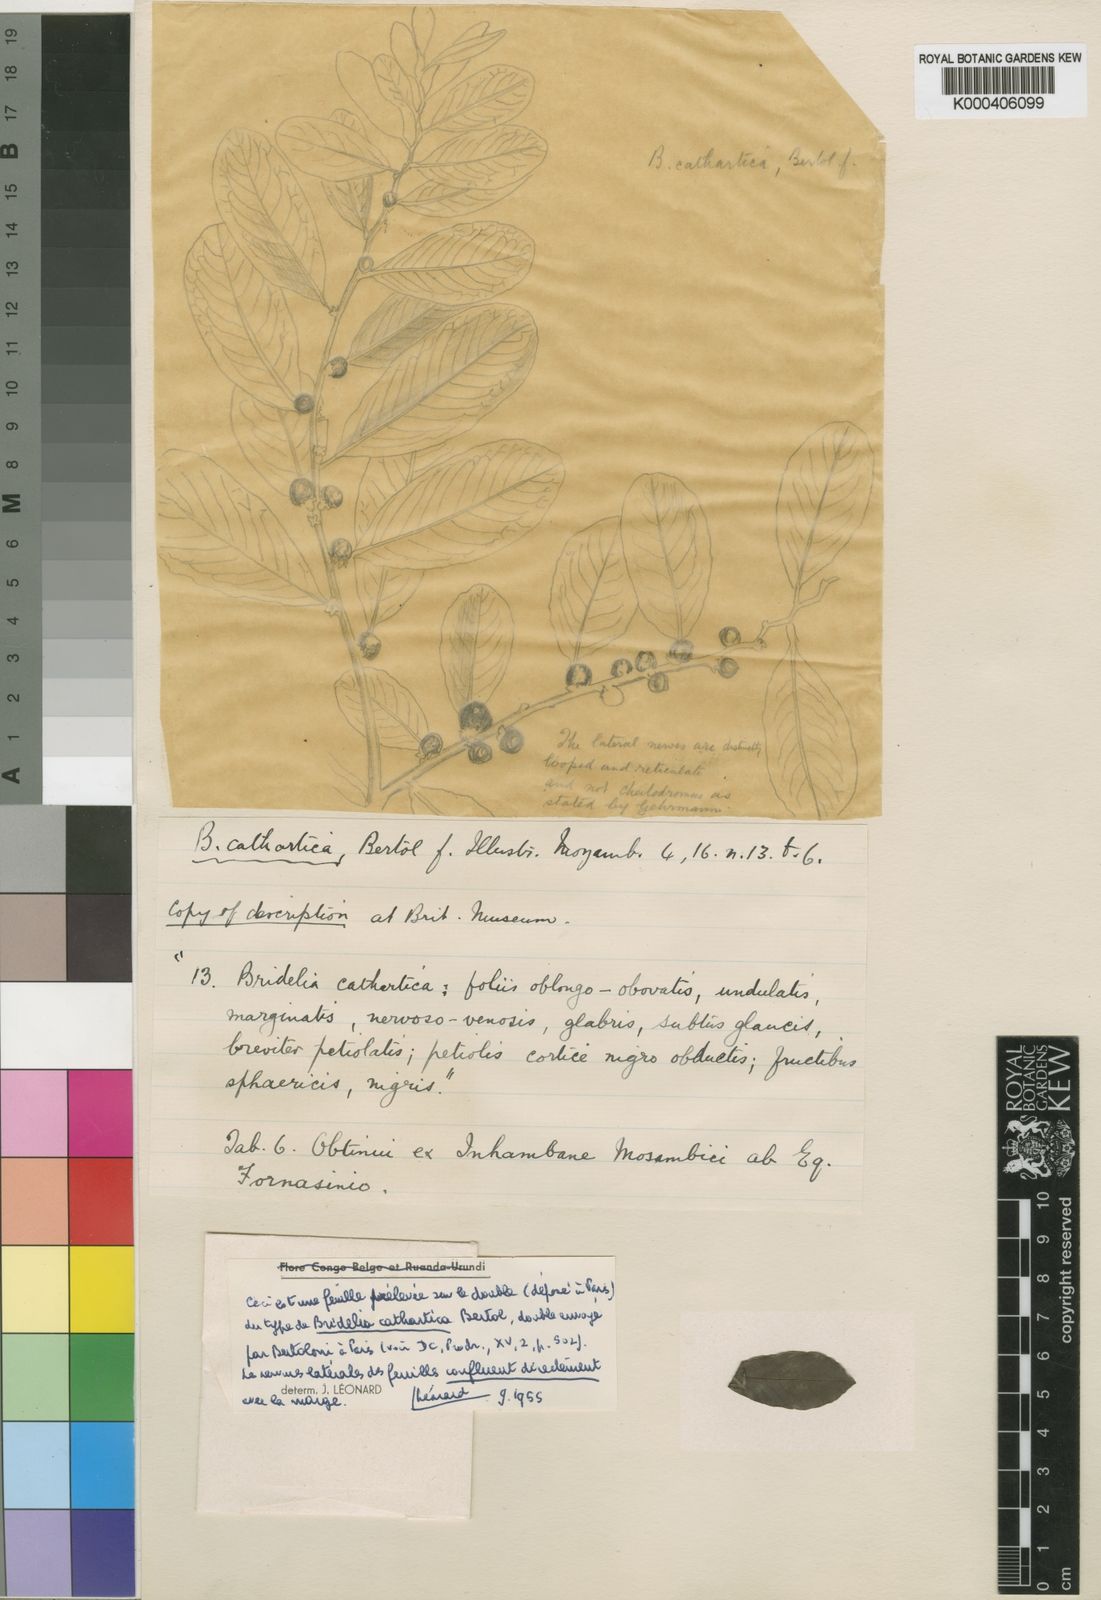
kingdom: Plantae
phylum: Tracheophyta
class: Magnoliopsida
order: Malpighiales
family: Phyllanthaceae
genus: Bridelia
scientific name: Bridelia cathartica
